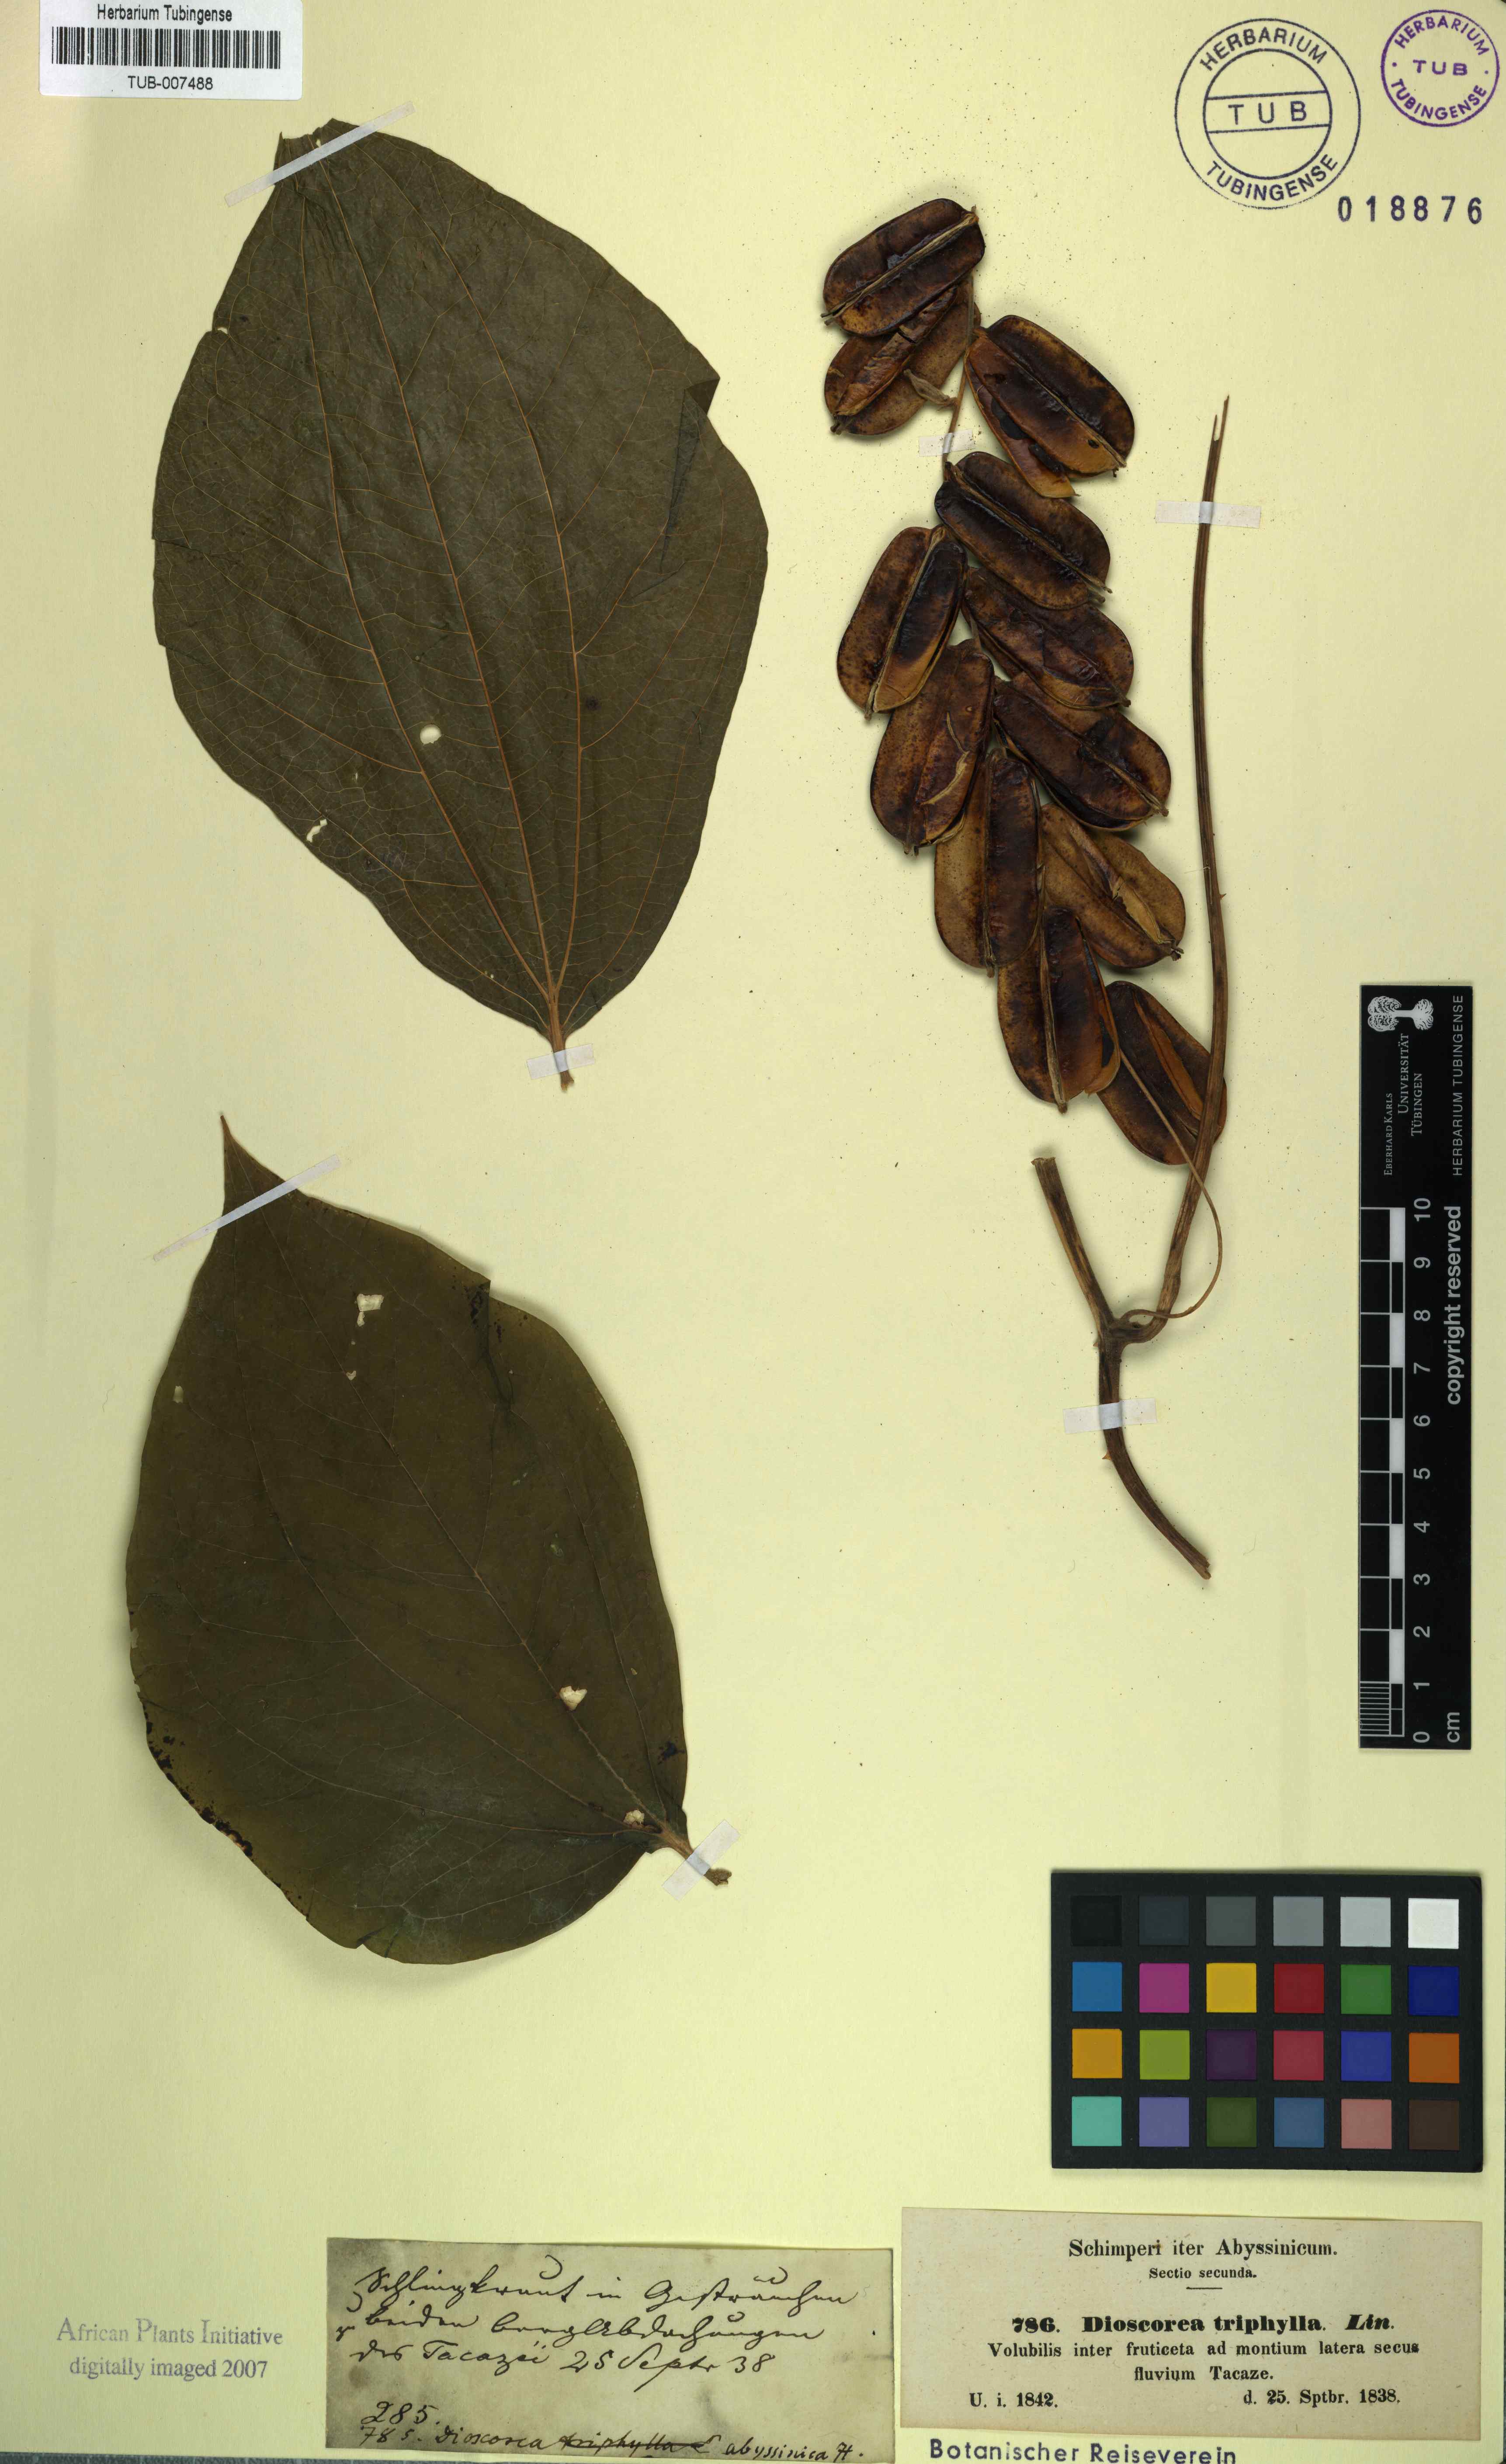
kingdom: Plantae
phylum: Tracheophyta
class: Liliopsida
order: Dioscoreales
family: Dioscoreaceae
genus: Dioscorea
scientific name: Dioscorea pentaphylla
